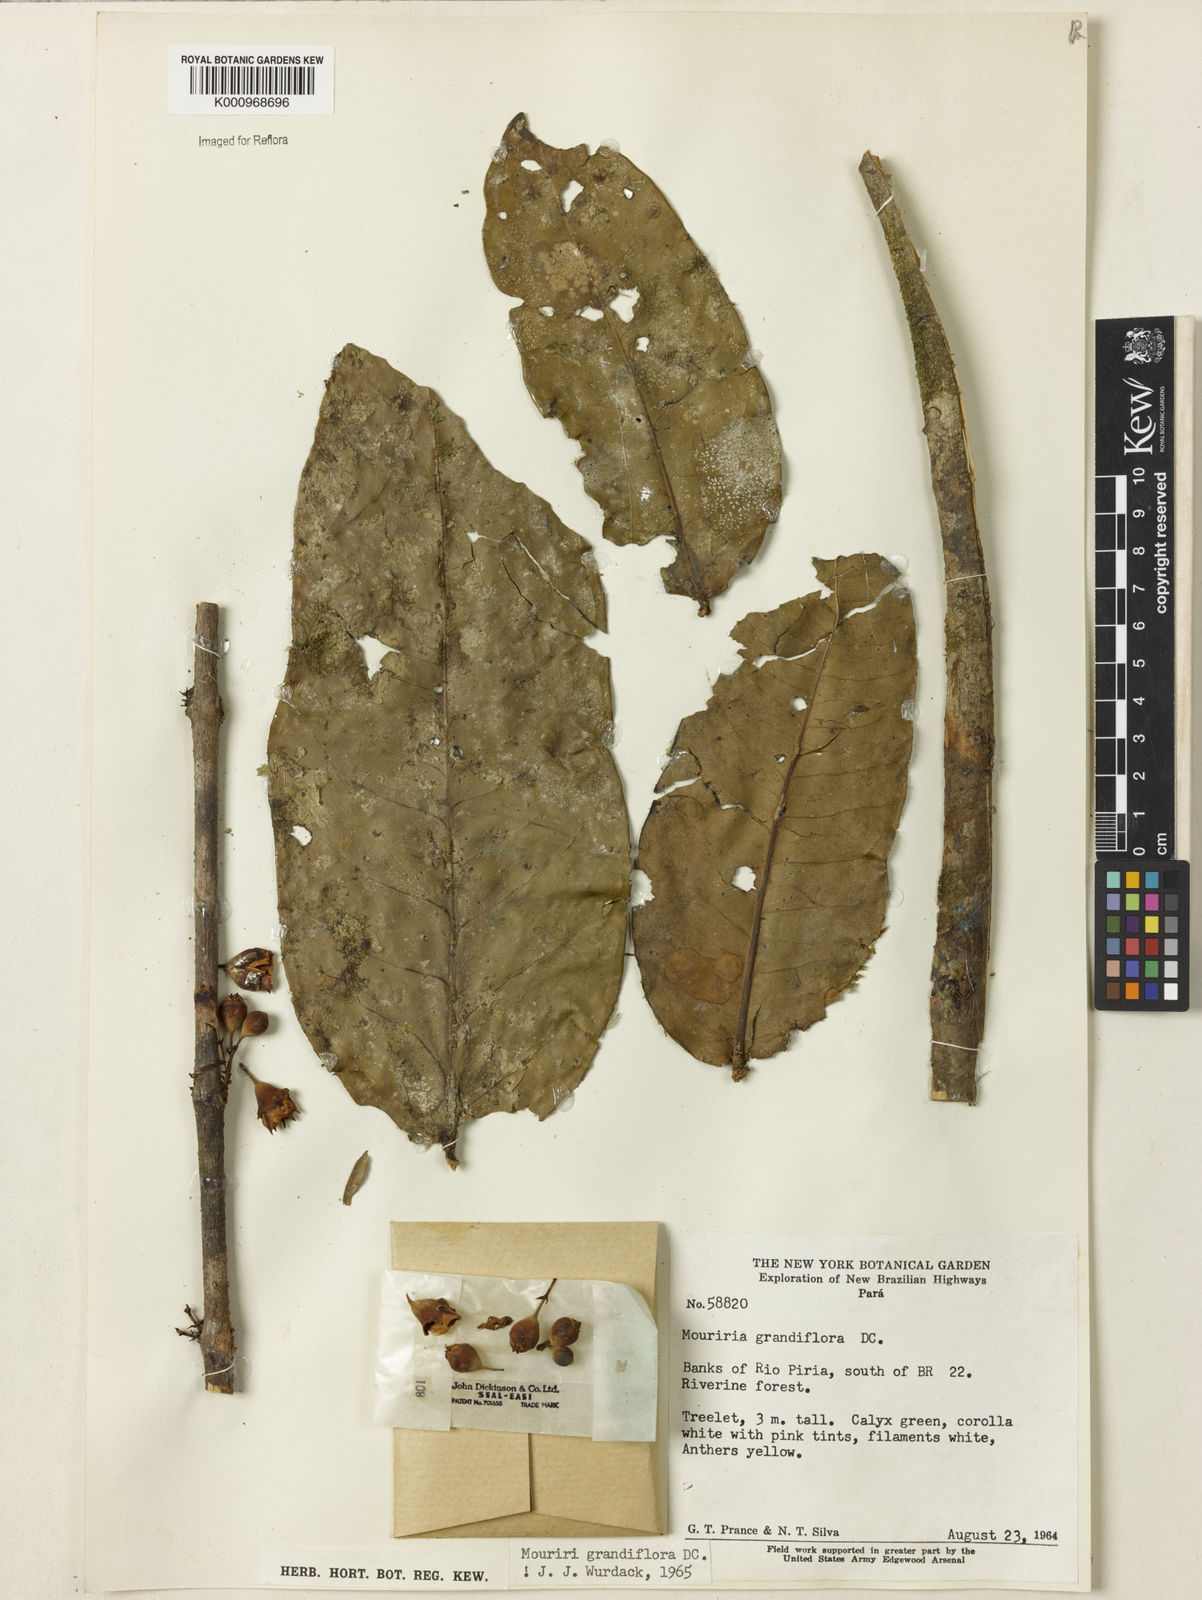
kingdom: Plantae
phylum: Tracheophyta
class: Magnoliopsida
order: Myrtales
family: Melastomataceae
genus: Mouriri
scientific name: Mouriri grandiflora
